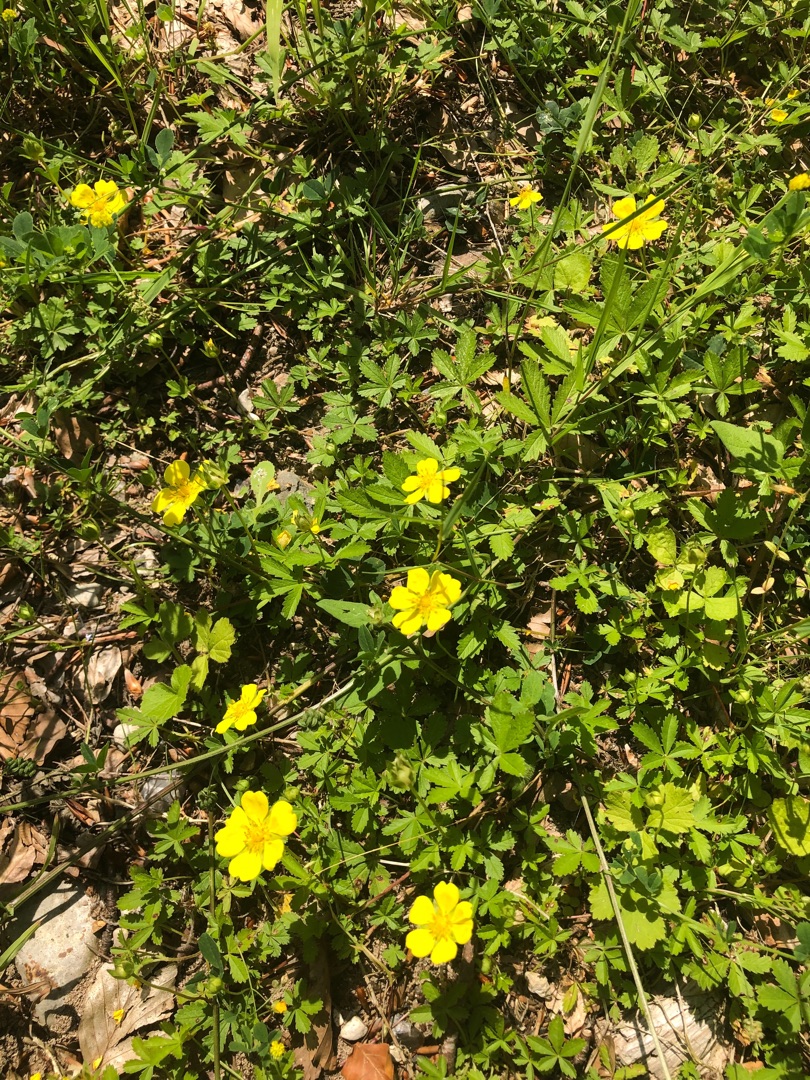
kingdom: Plantae
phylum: Tracheophyta
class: Magnoliopsida
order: Rosales
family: Rosaceae
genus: Potentilla
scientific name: Potentilla reptans
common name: Krybende potentil
